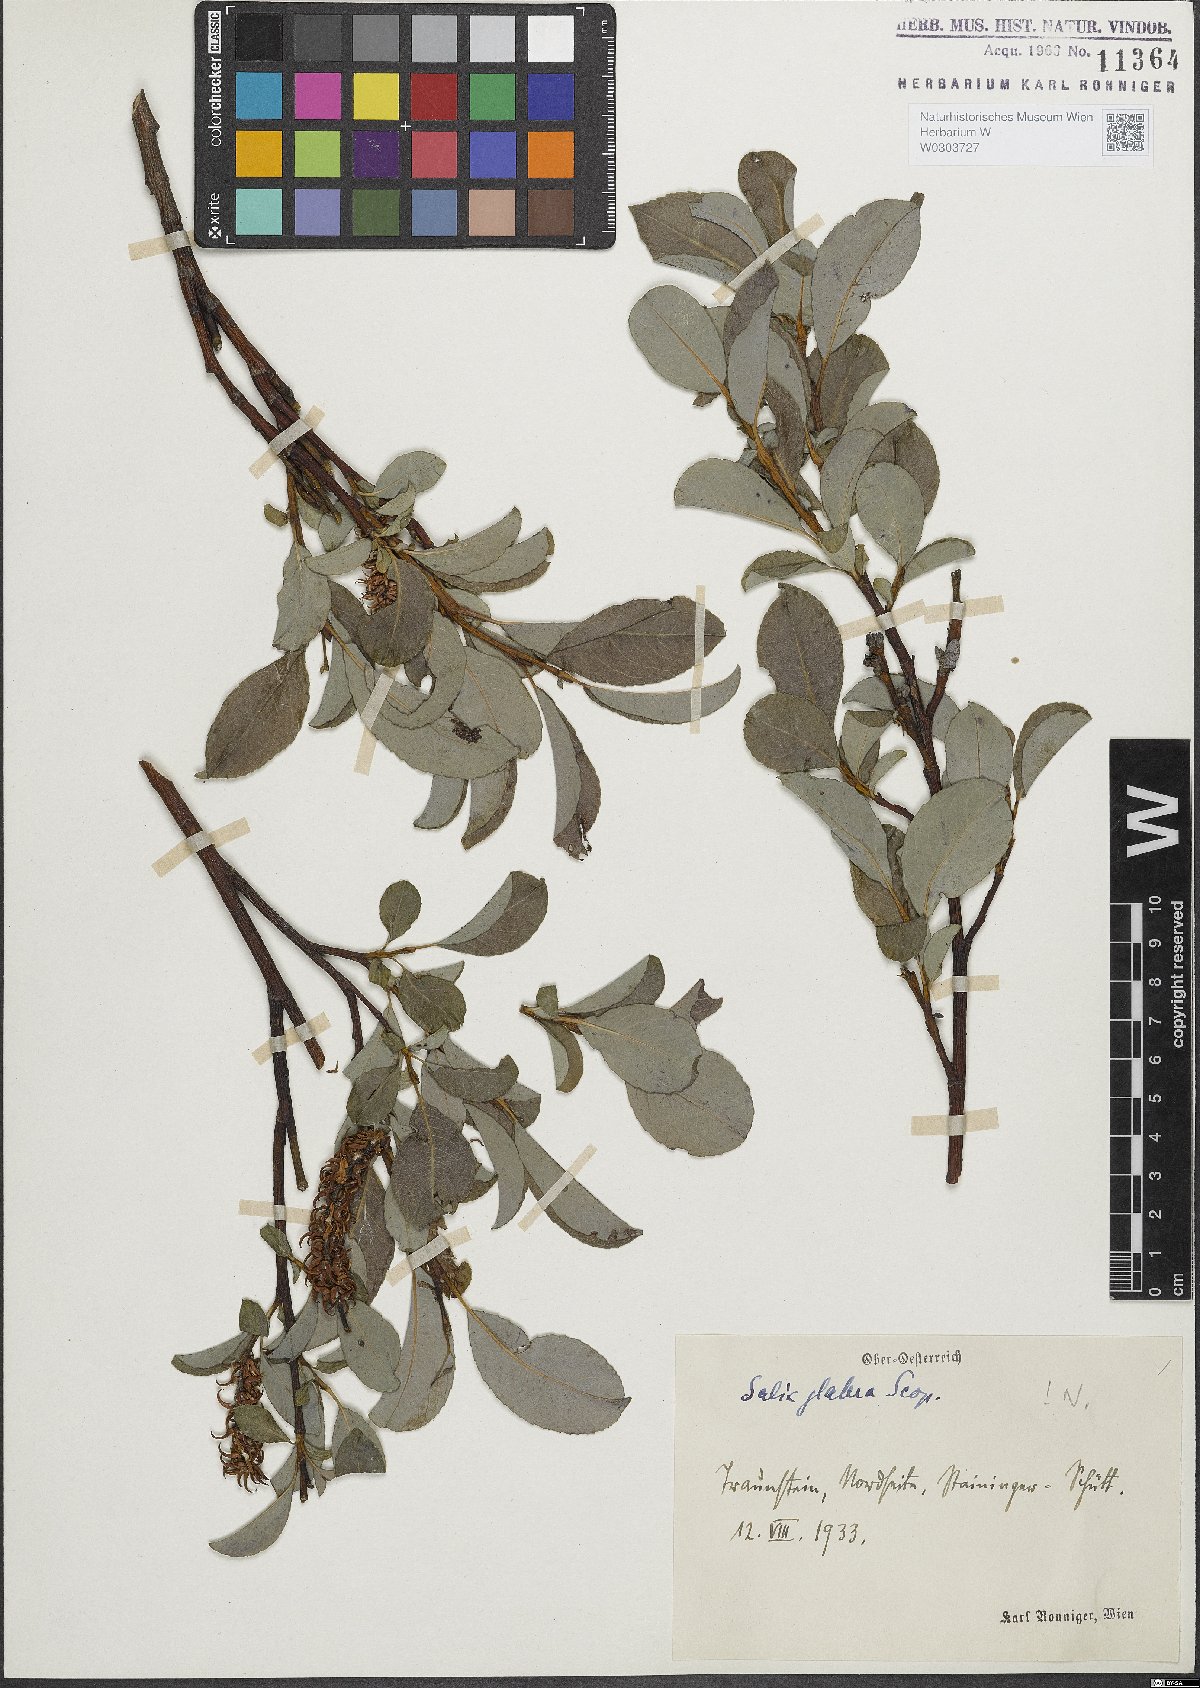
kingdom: Plantae
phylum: Tracheophyta
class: Magnoliopsida
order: Malpighiales
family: Salicaceae
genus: Salix
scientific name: Salix glabra
